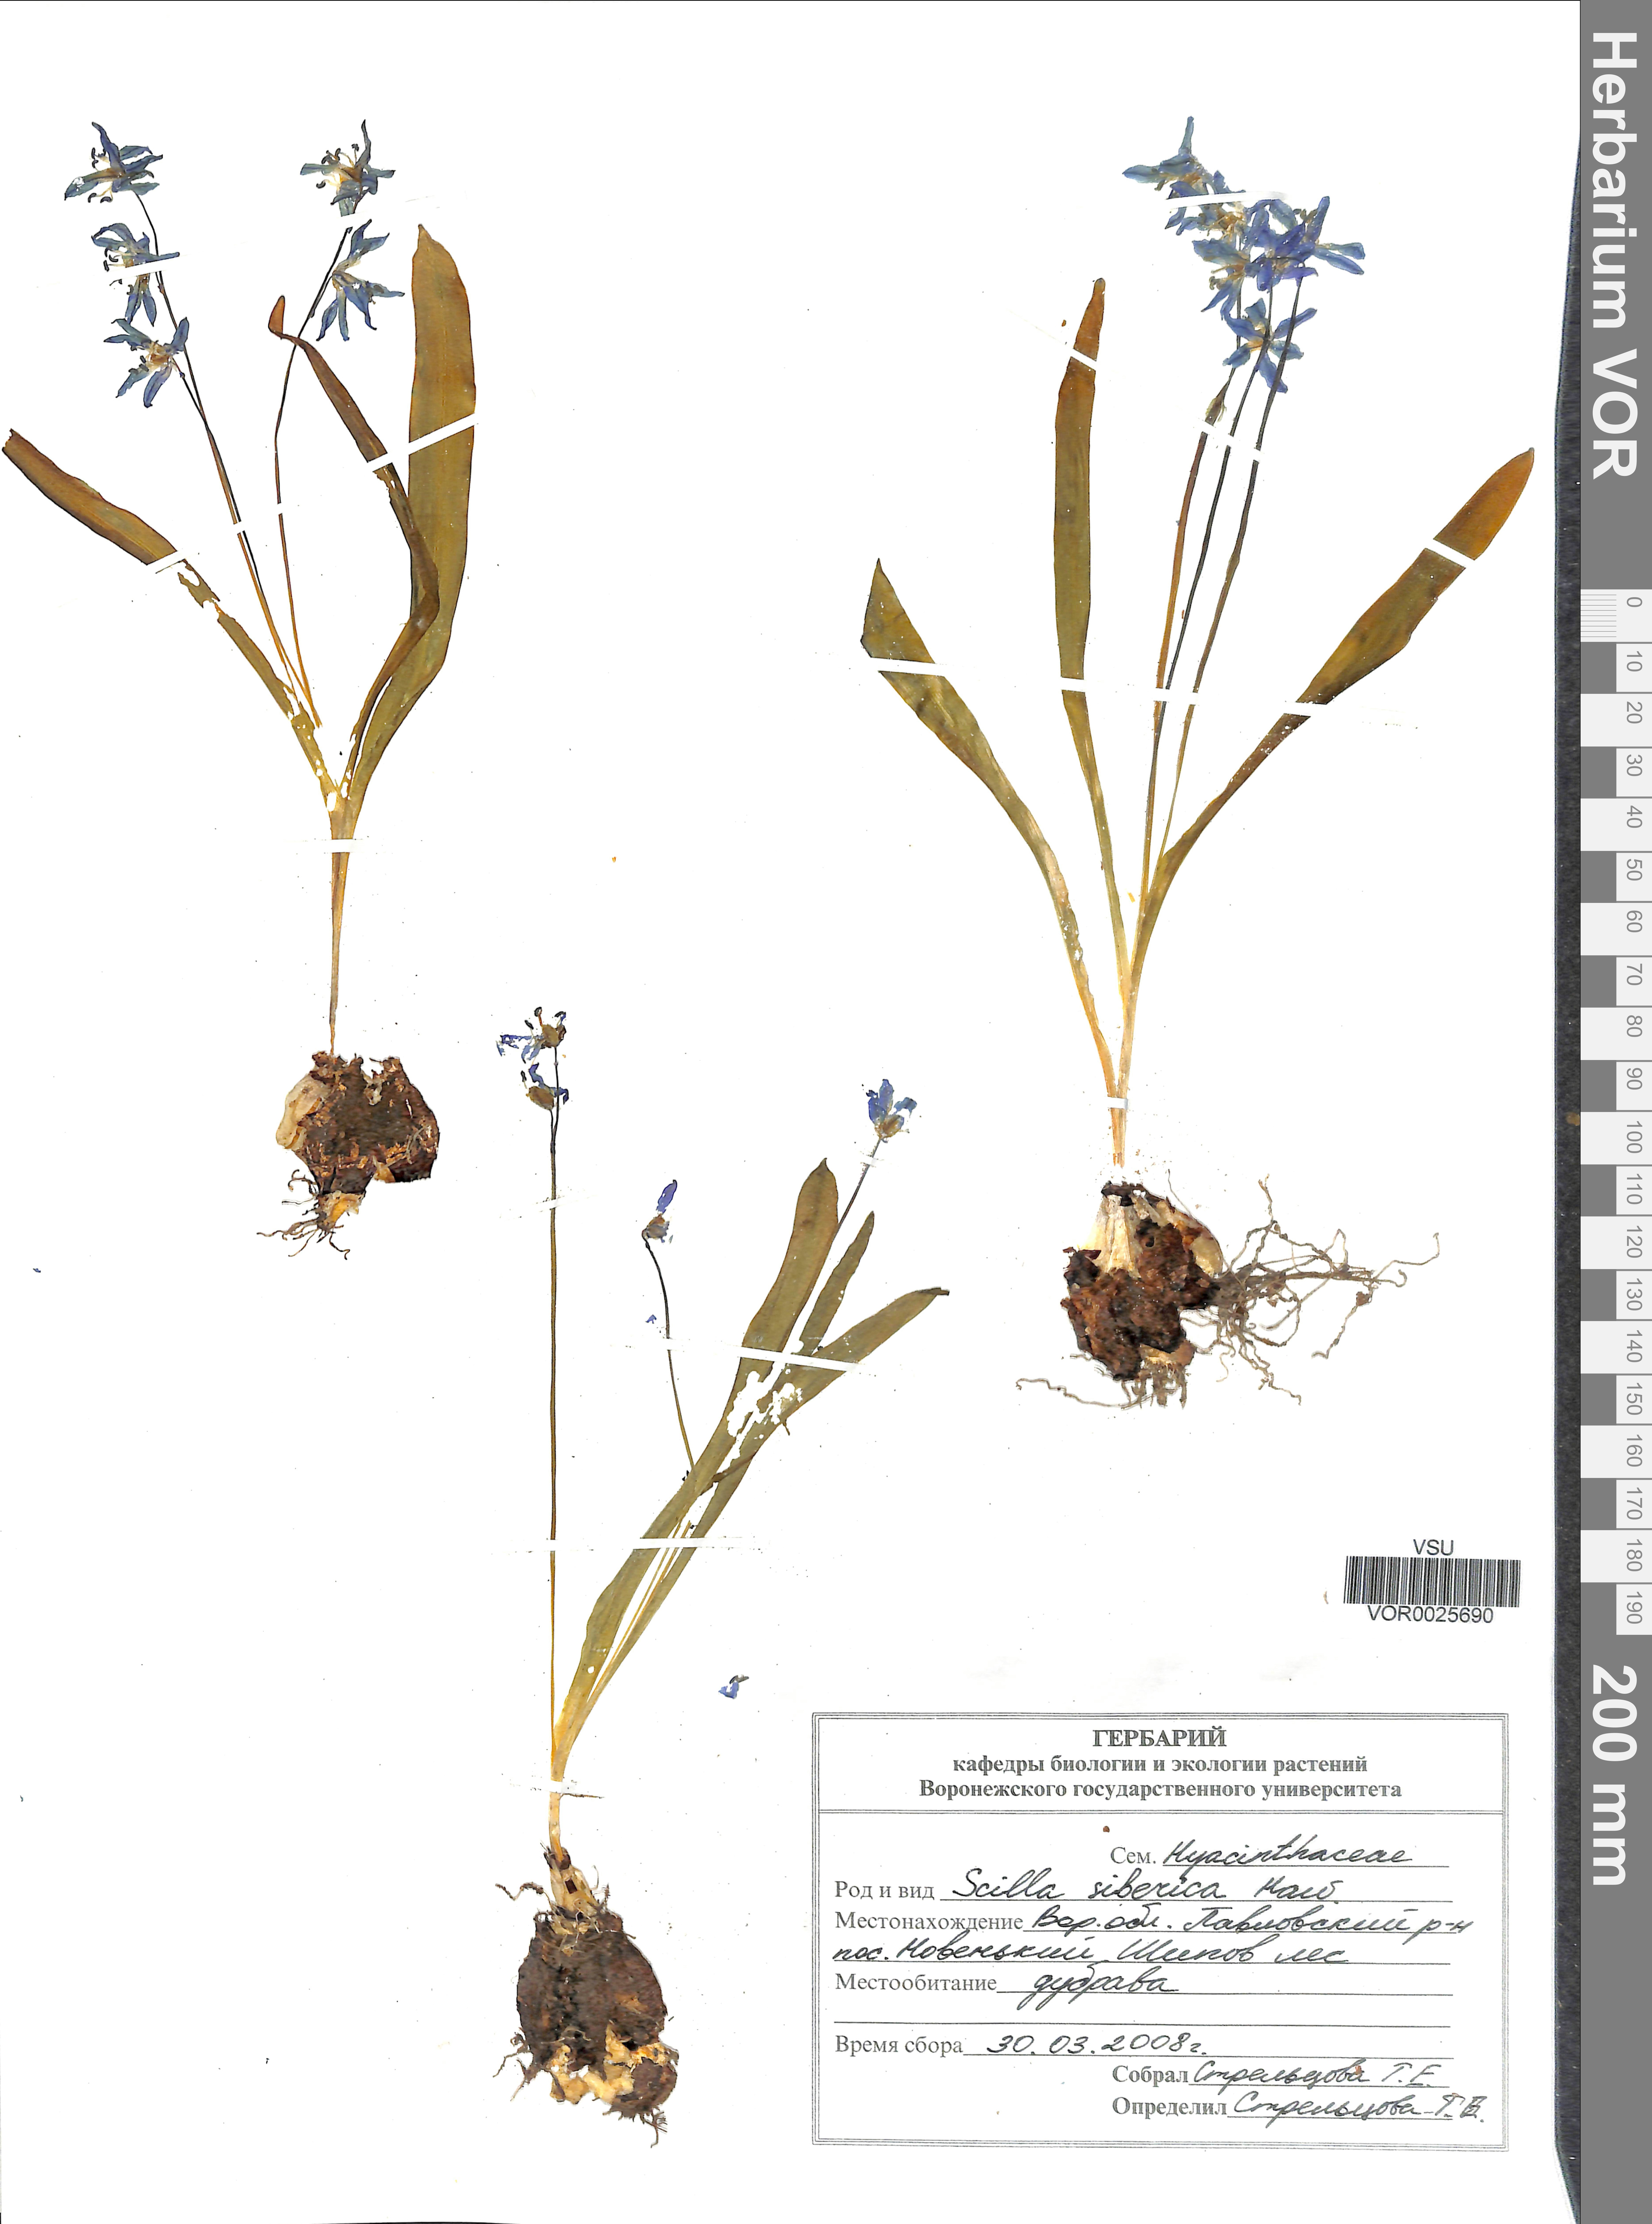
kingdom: Plantae
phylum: Tracheophyta
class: Liliopsida
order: Asparagales
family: Asparagaceae
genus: Scilla
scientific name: Scilla siberica
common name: Siberian squill
